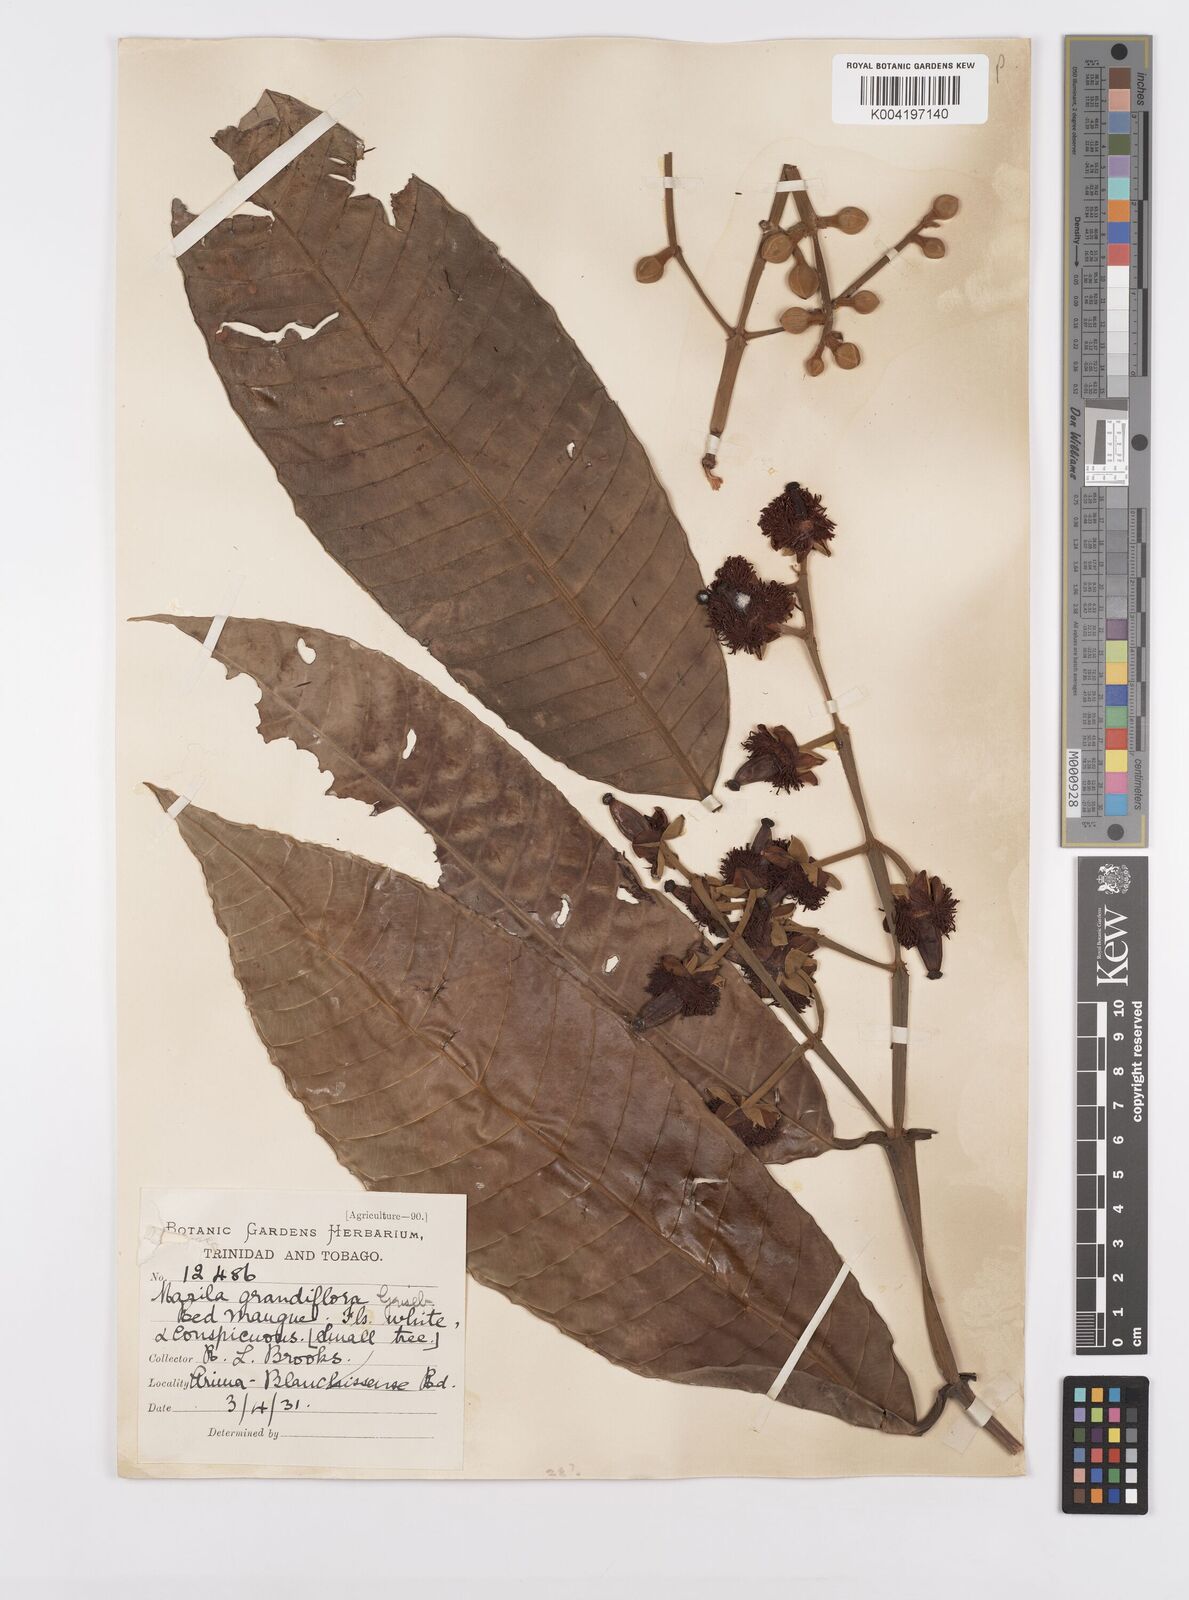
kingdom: Plantae
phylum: Tracheophyta
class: Magnoliopsida
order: Malpighiales
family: Calophyllaceae
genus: Marila
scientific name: Marila grandiflora
